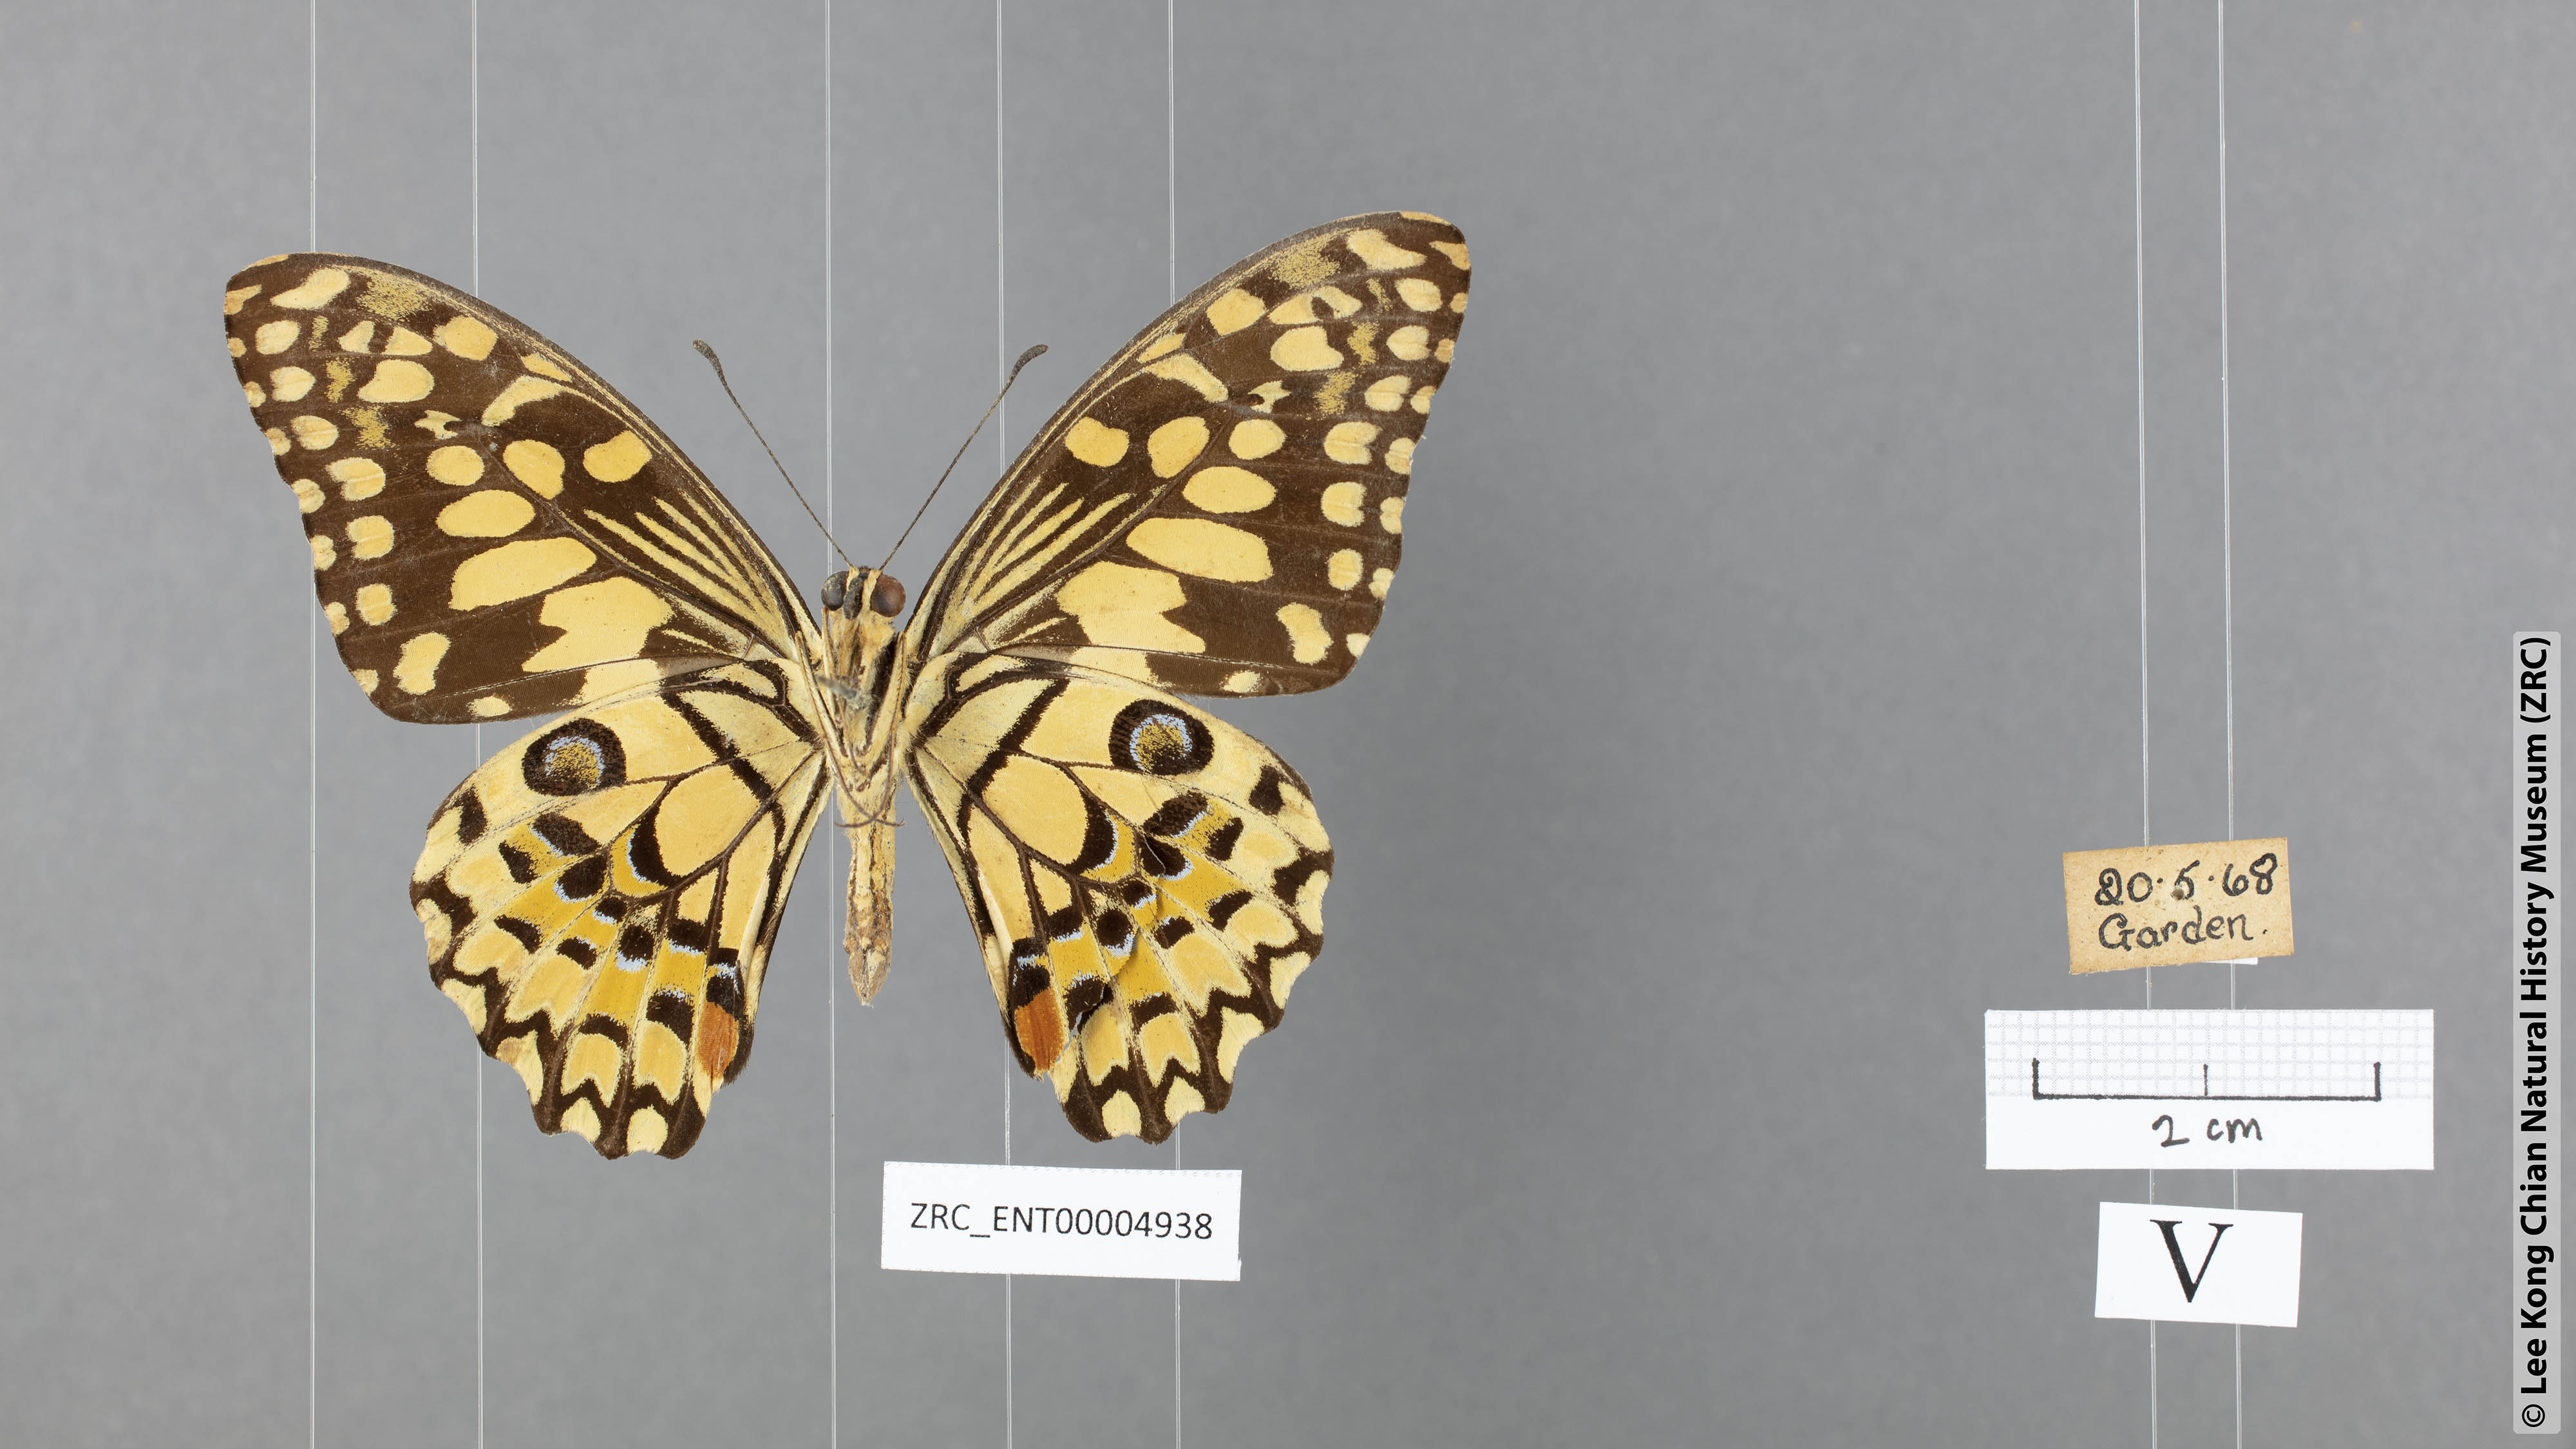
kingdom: Animalia
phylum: Arthropoda
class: Insecta
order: Lepidoptera
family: Papilionidae
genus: Papilio
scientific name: Papilio demoleus
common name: Lime butterfly
